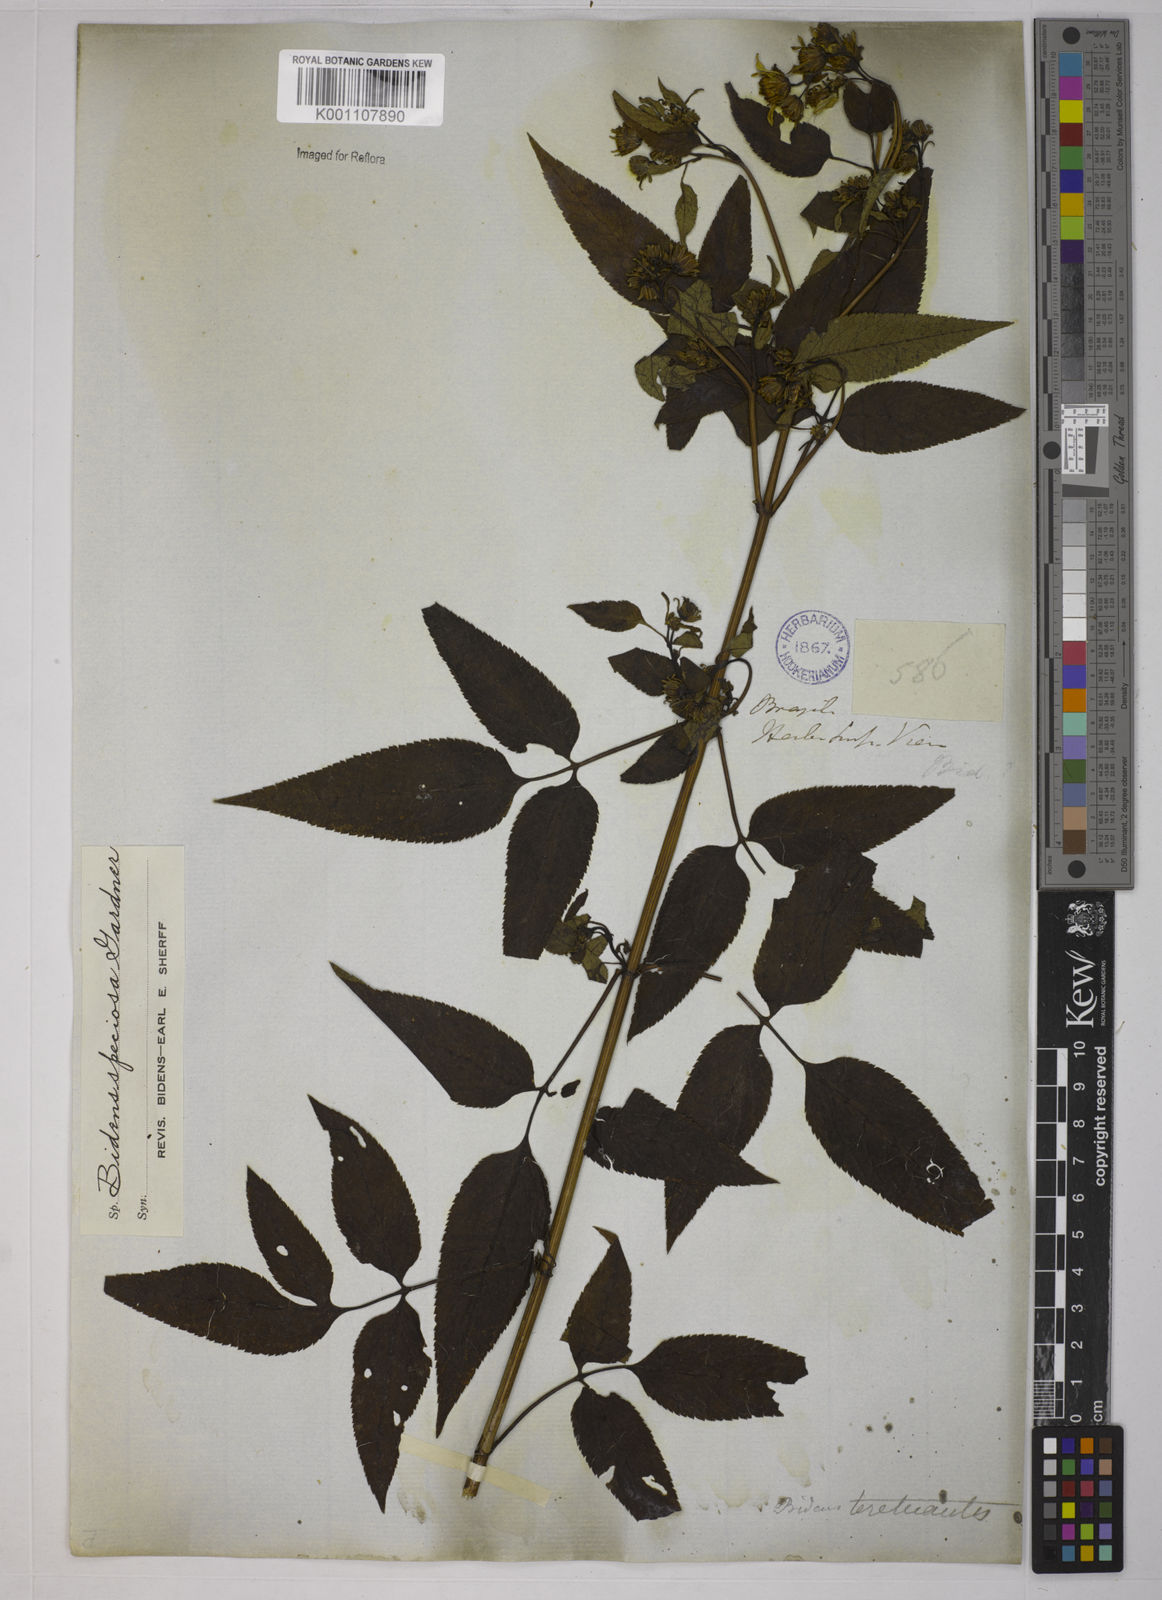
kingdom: Plantae
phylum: Tracheophyta
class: Magnoliopsida
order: Asterales
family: Asteraceae
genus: Bidens
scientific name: Bidens segetum
